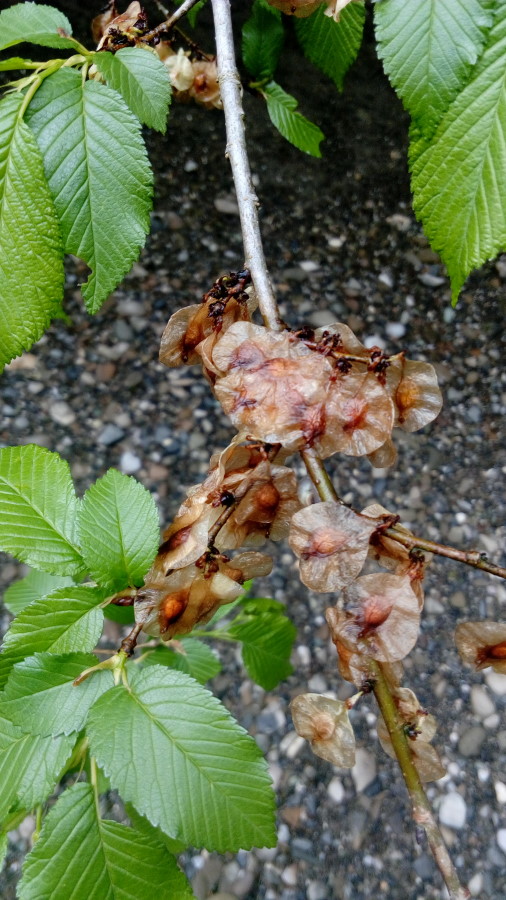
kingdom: Plantae
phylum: Tracheophyta
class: Magnoliopsida
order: Fagales
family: Betulaceae
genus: Carpinus
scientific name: Carpinus
